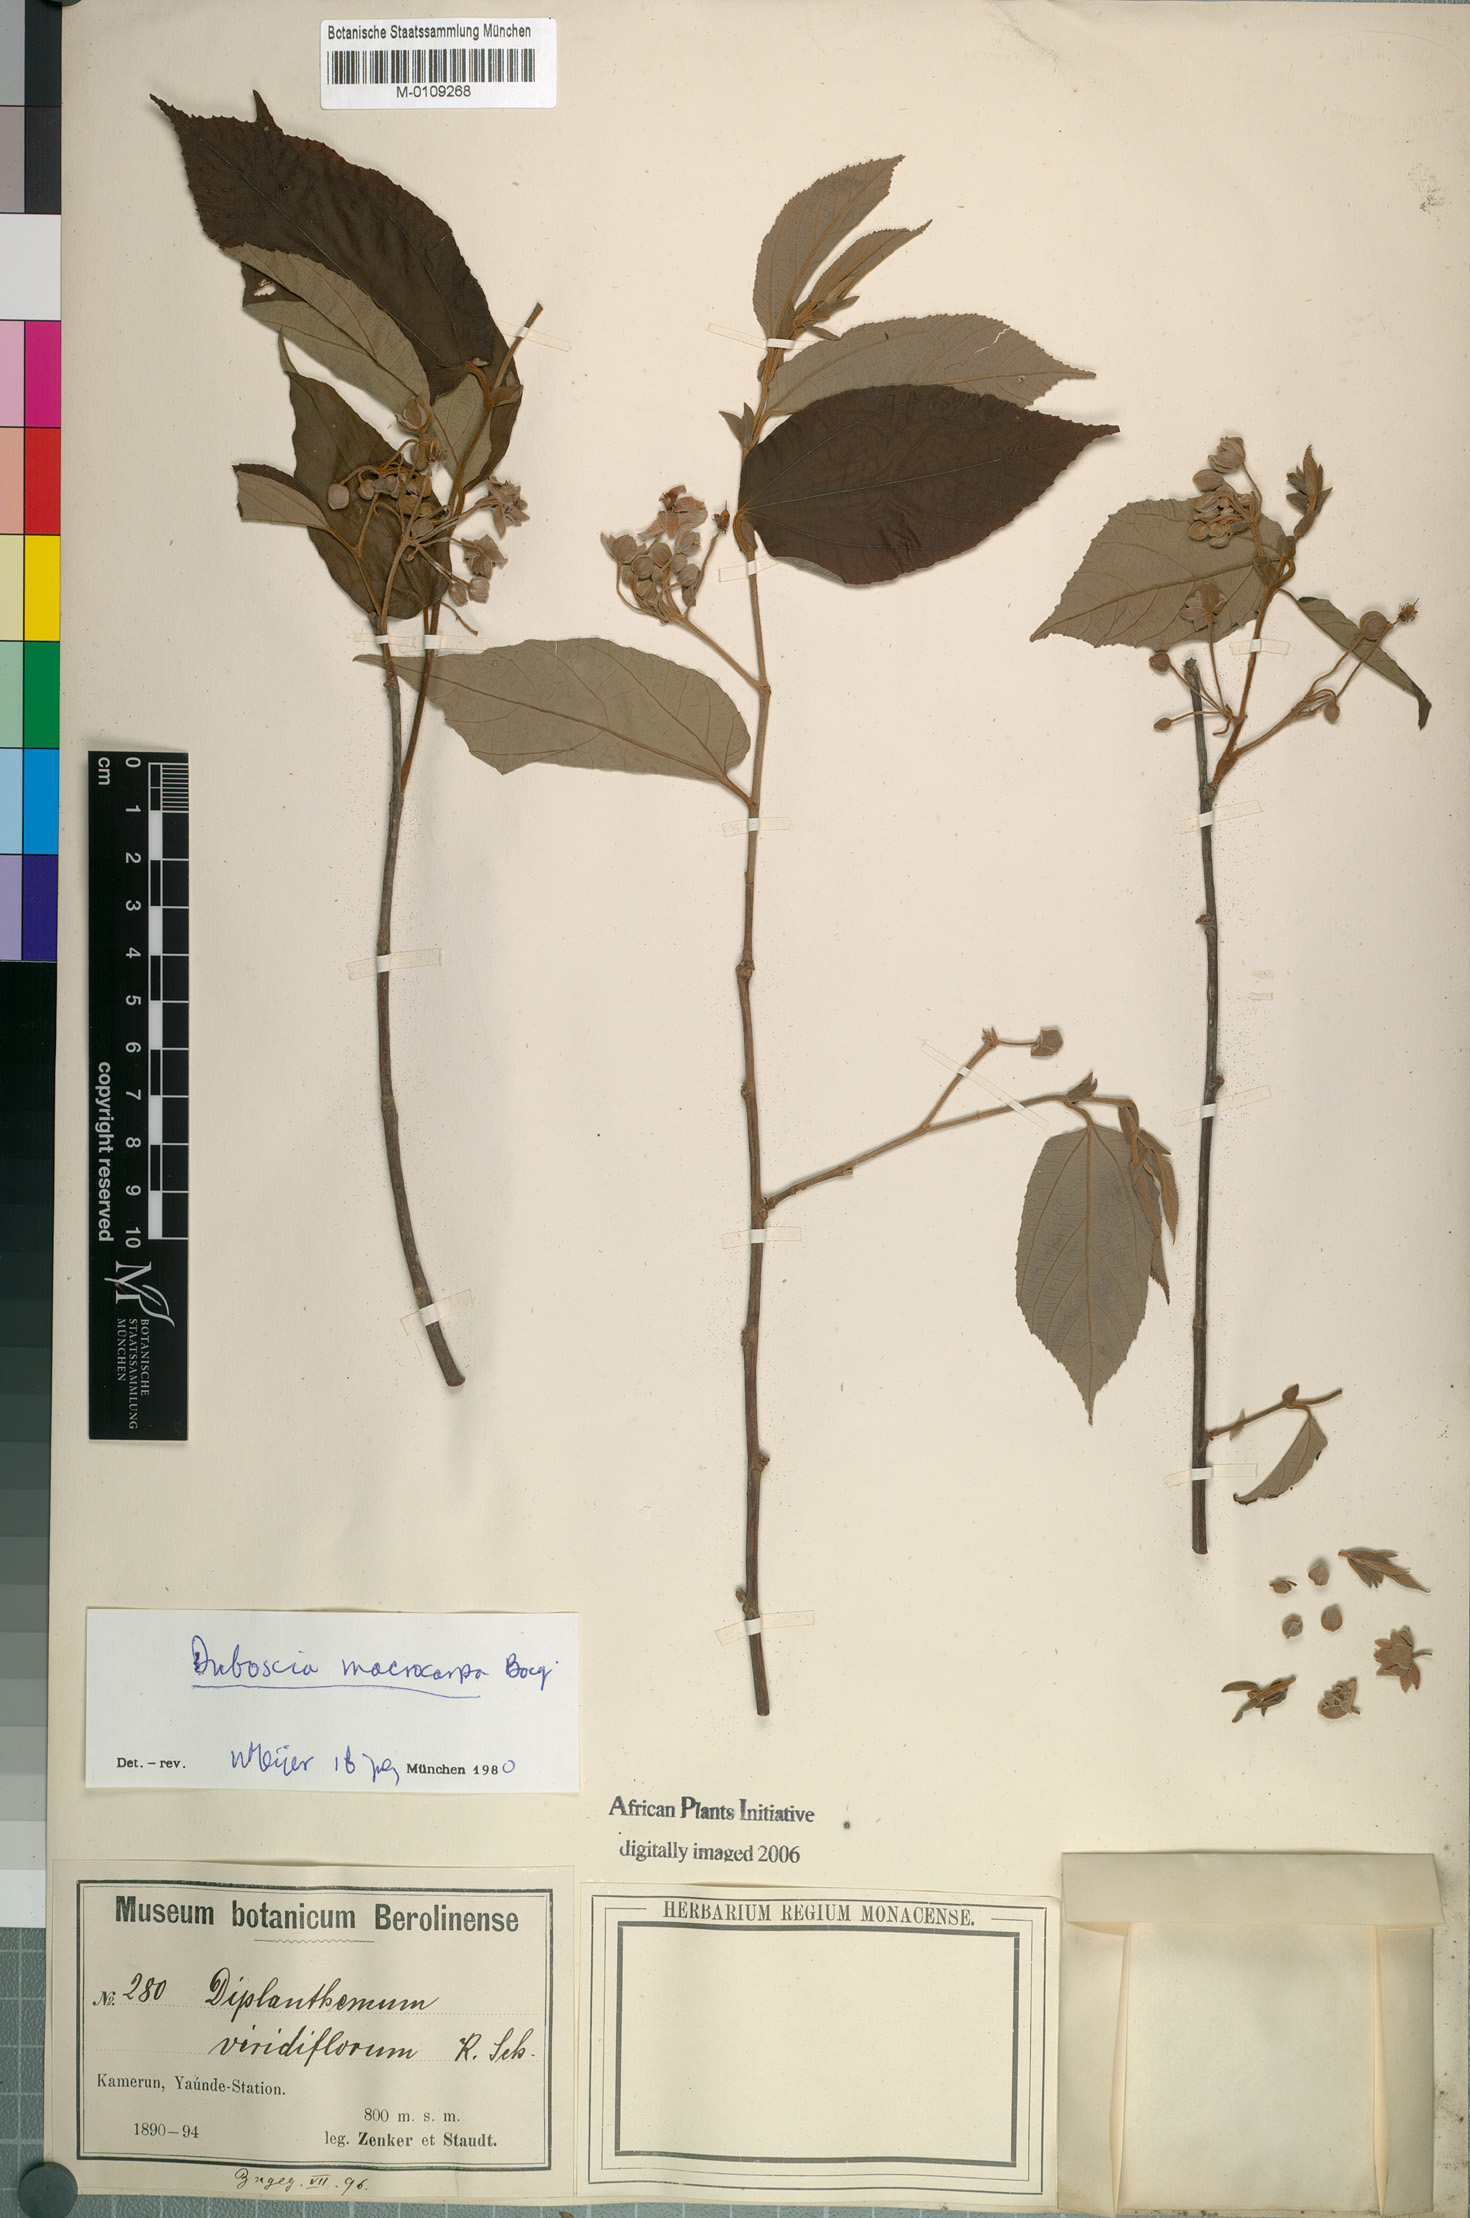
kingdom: Plantae
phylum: Tracheophyta
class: Magnoliopsida
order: Malvales
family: Malvaceae
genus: Duboscia
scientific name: Duboscia macrocarpa
